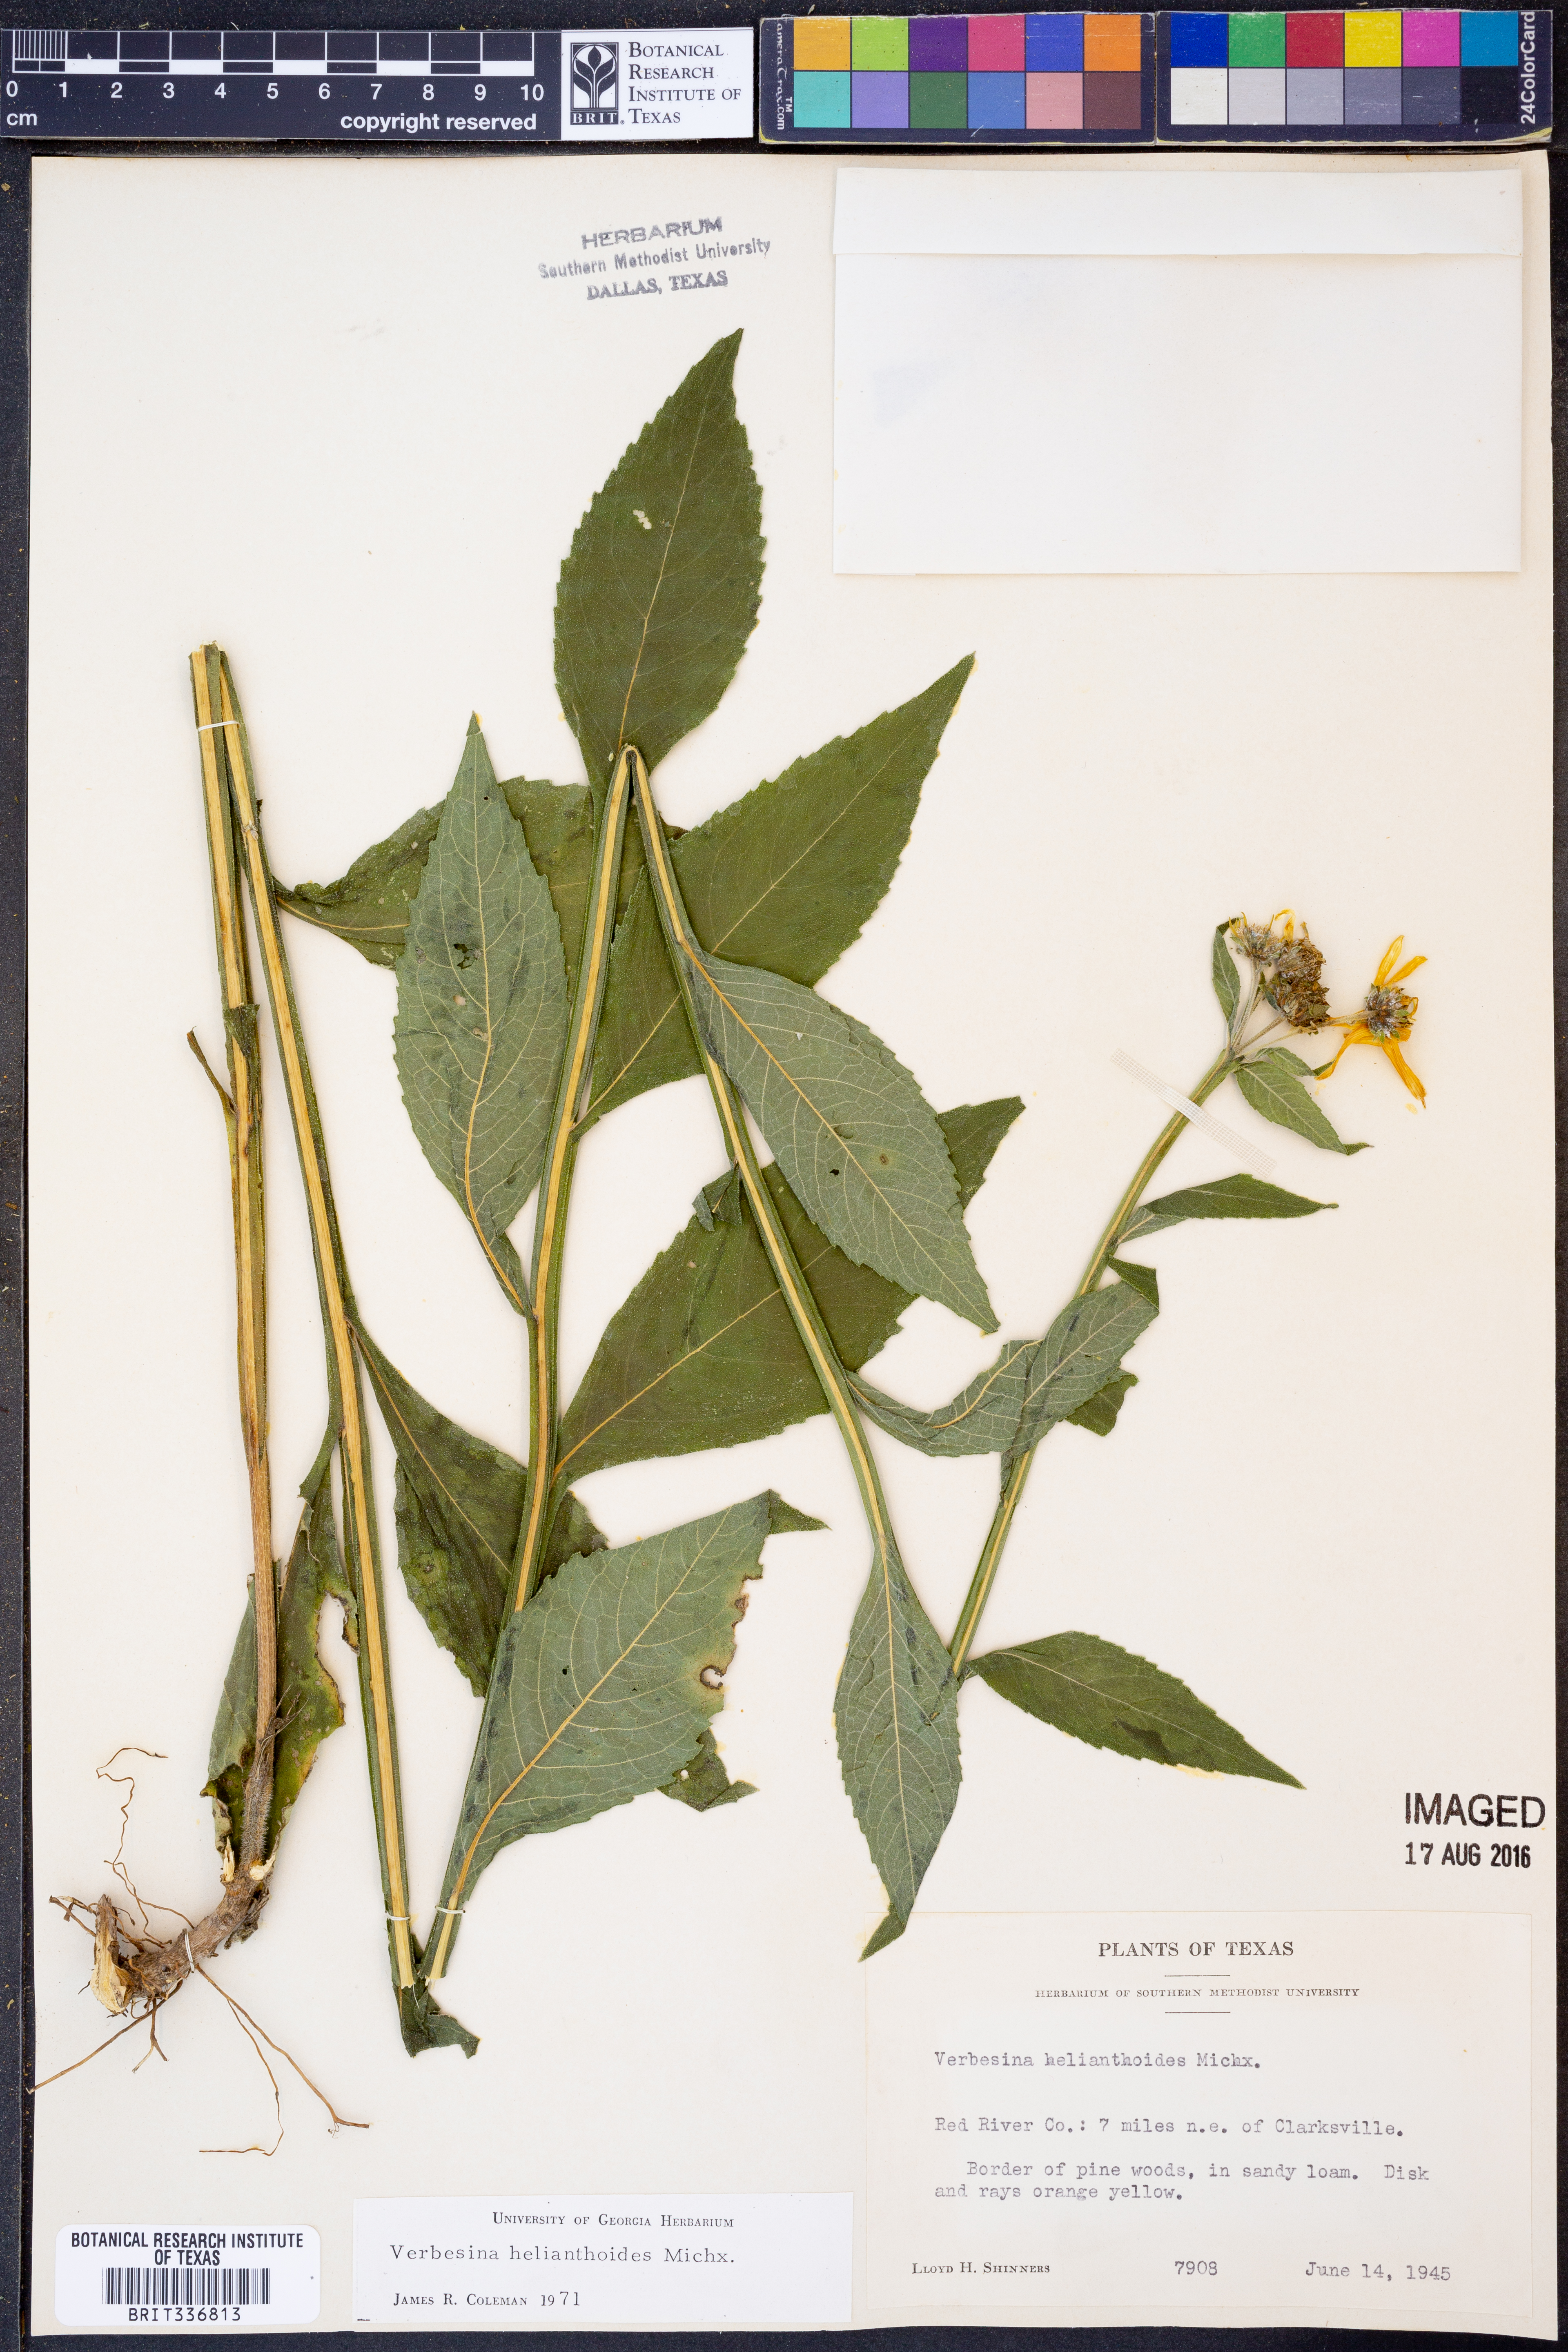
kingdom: Plantae
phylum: Tracheophyta
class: Magnoliopsida
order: Asterales
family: Asteraceae
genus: Verbesina
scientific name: Verbesina helianthoides
